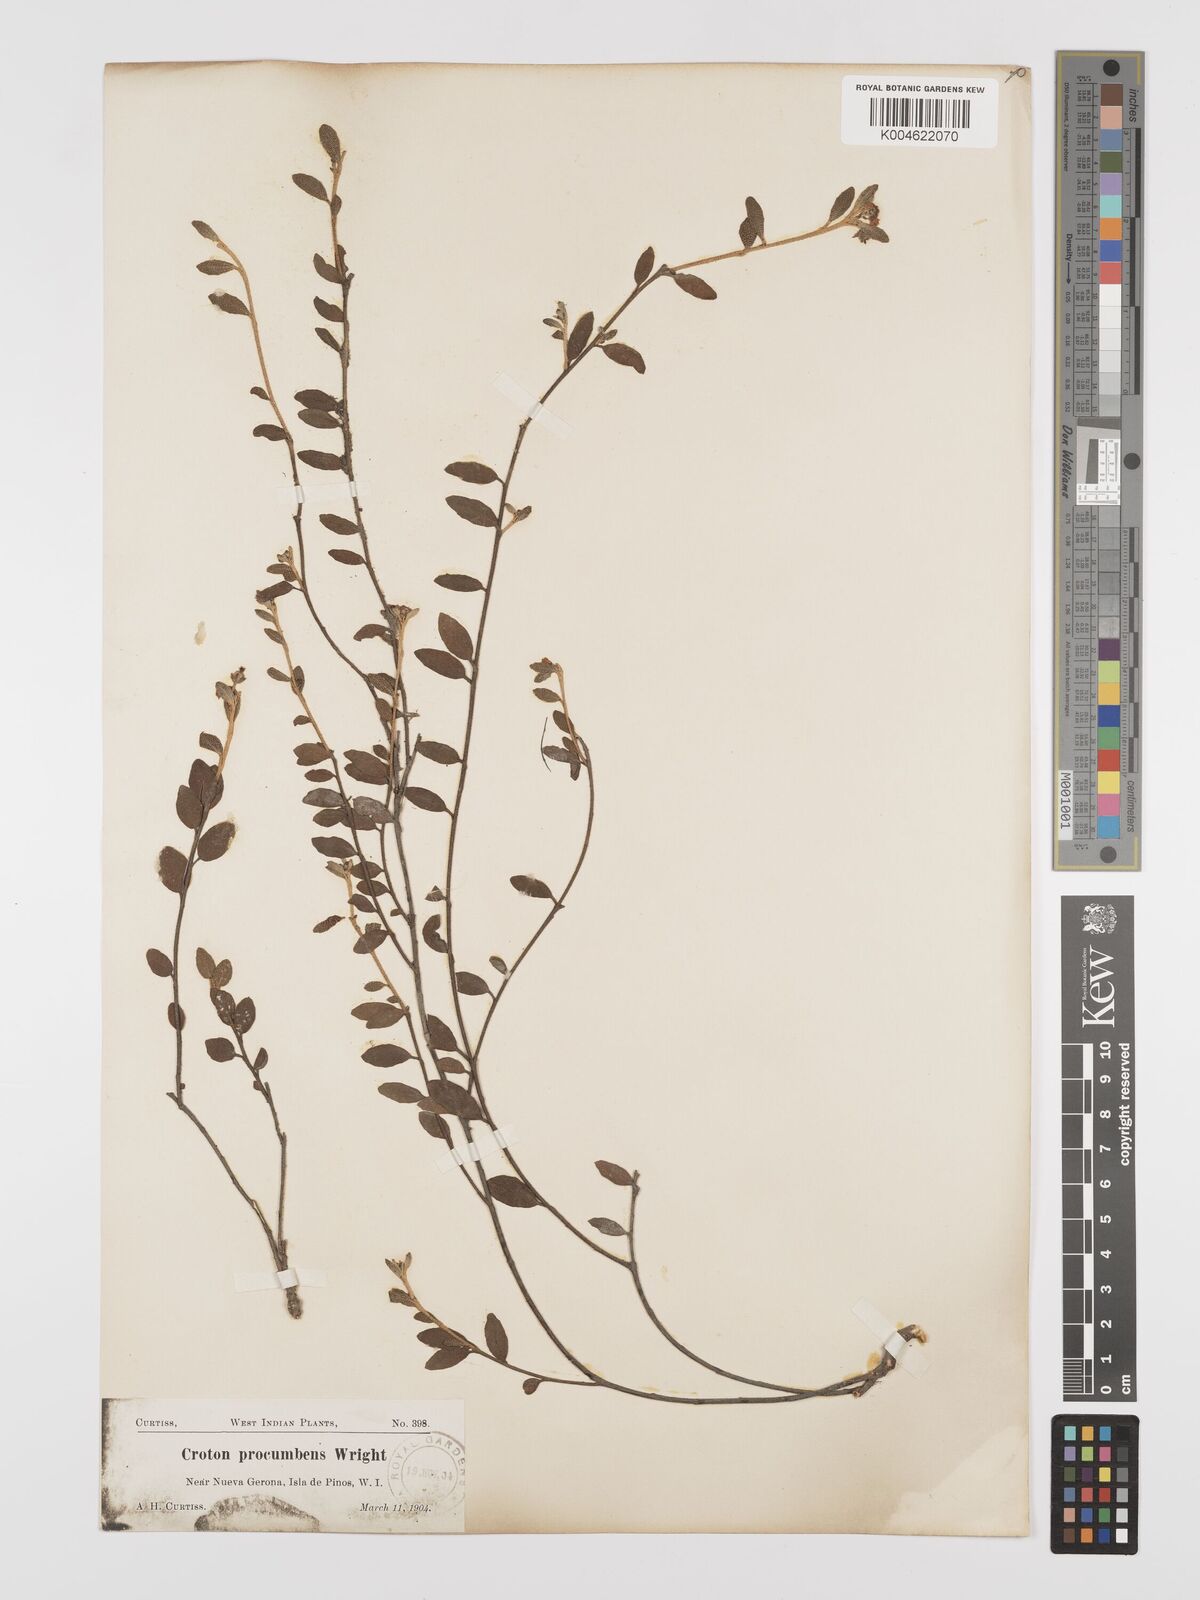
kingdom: Plantae
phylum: Tracheophyta
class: Magnoliopsida
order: Malpighiales
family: Euphorbiaceae
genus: Croton
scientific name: Croton cerinus
